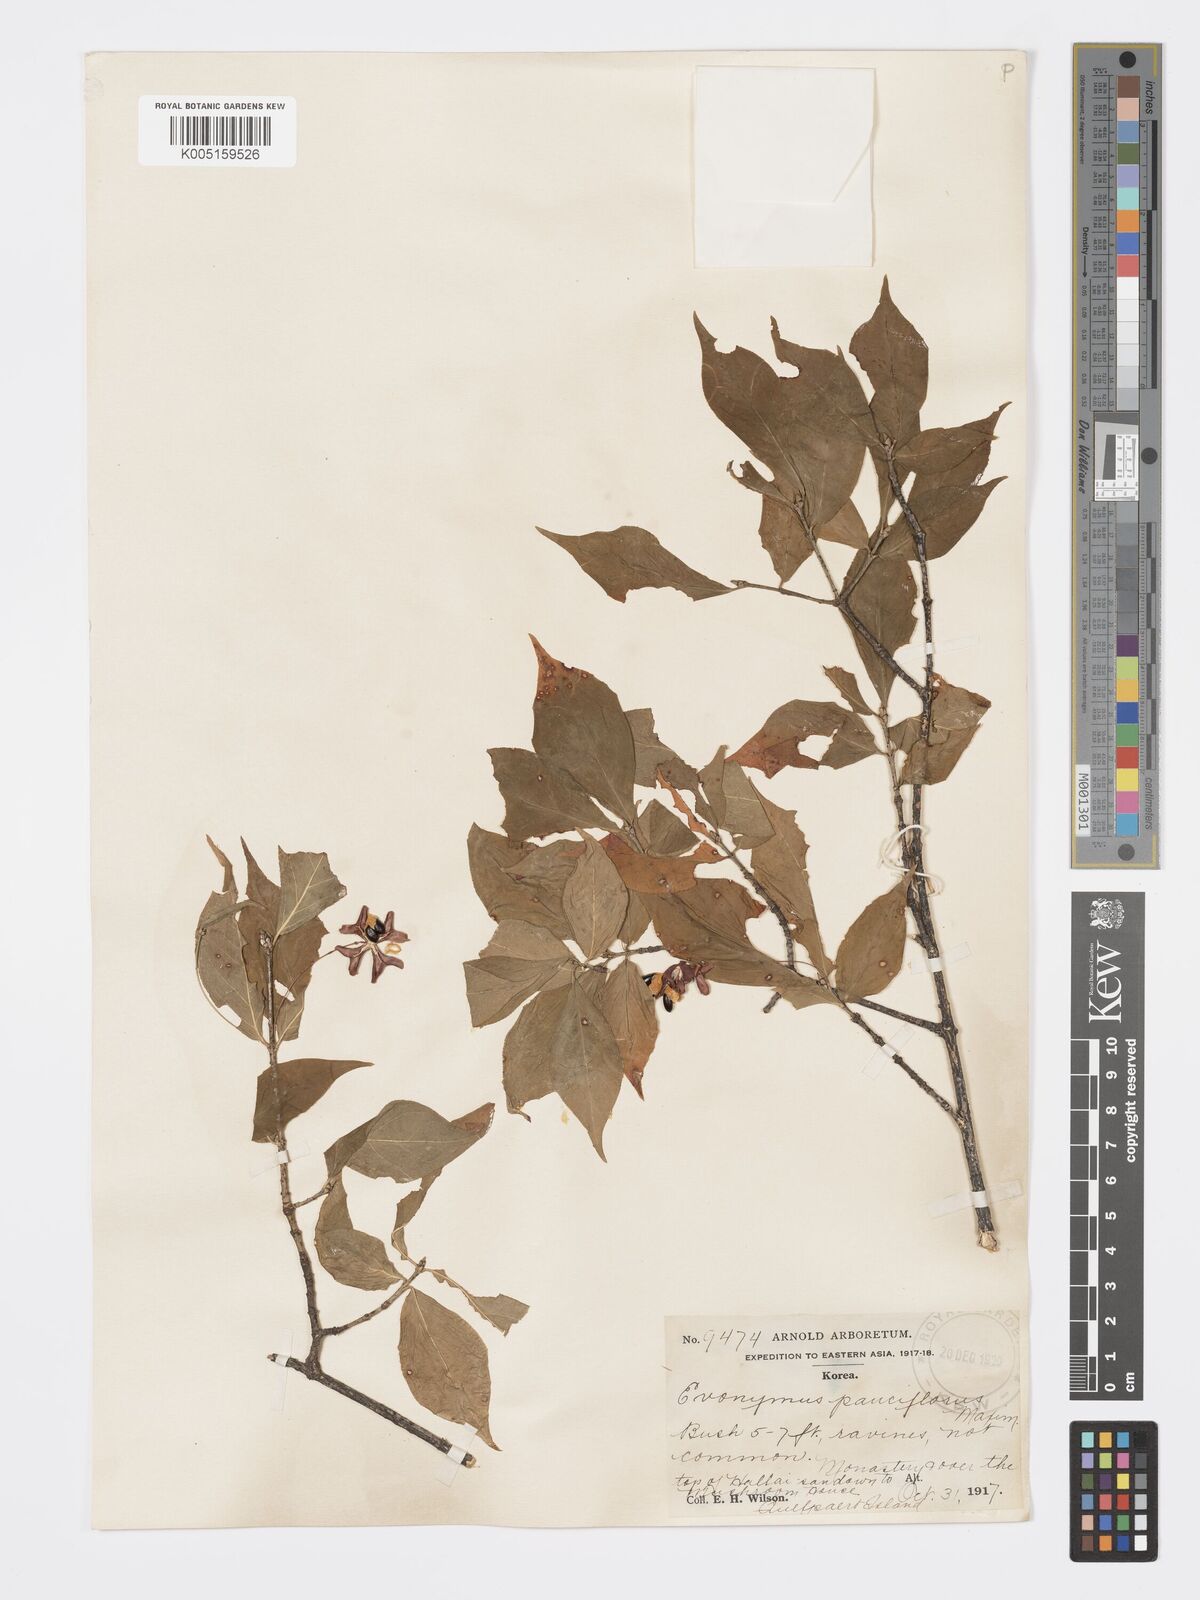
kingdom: Plantae
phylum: Tracheophyta
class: Magnoliopsida
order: Celastrales
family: Celastraceae
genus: Euonymus
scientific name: Euonymus verrucosus
